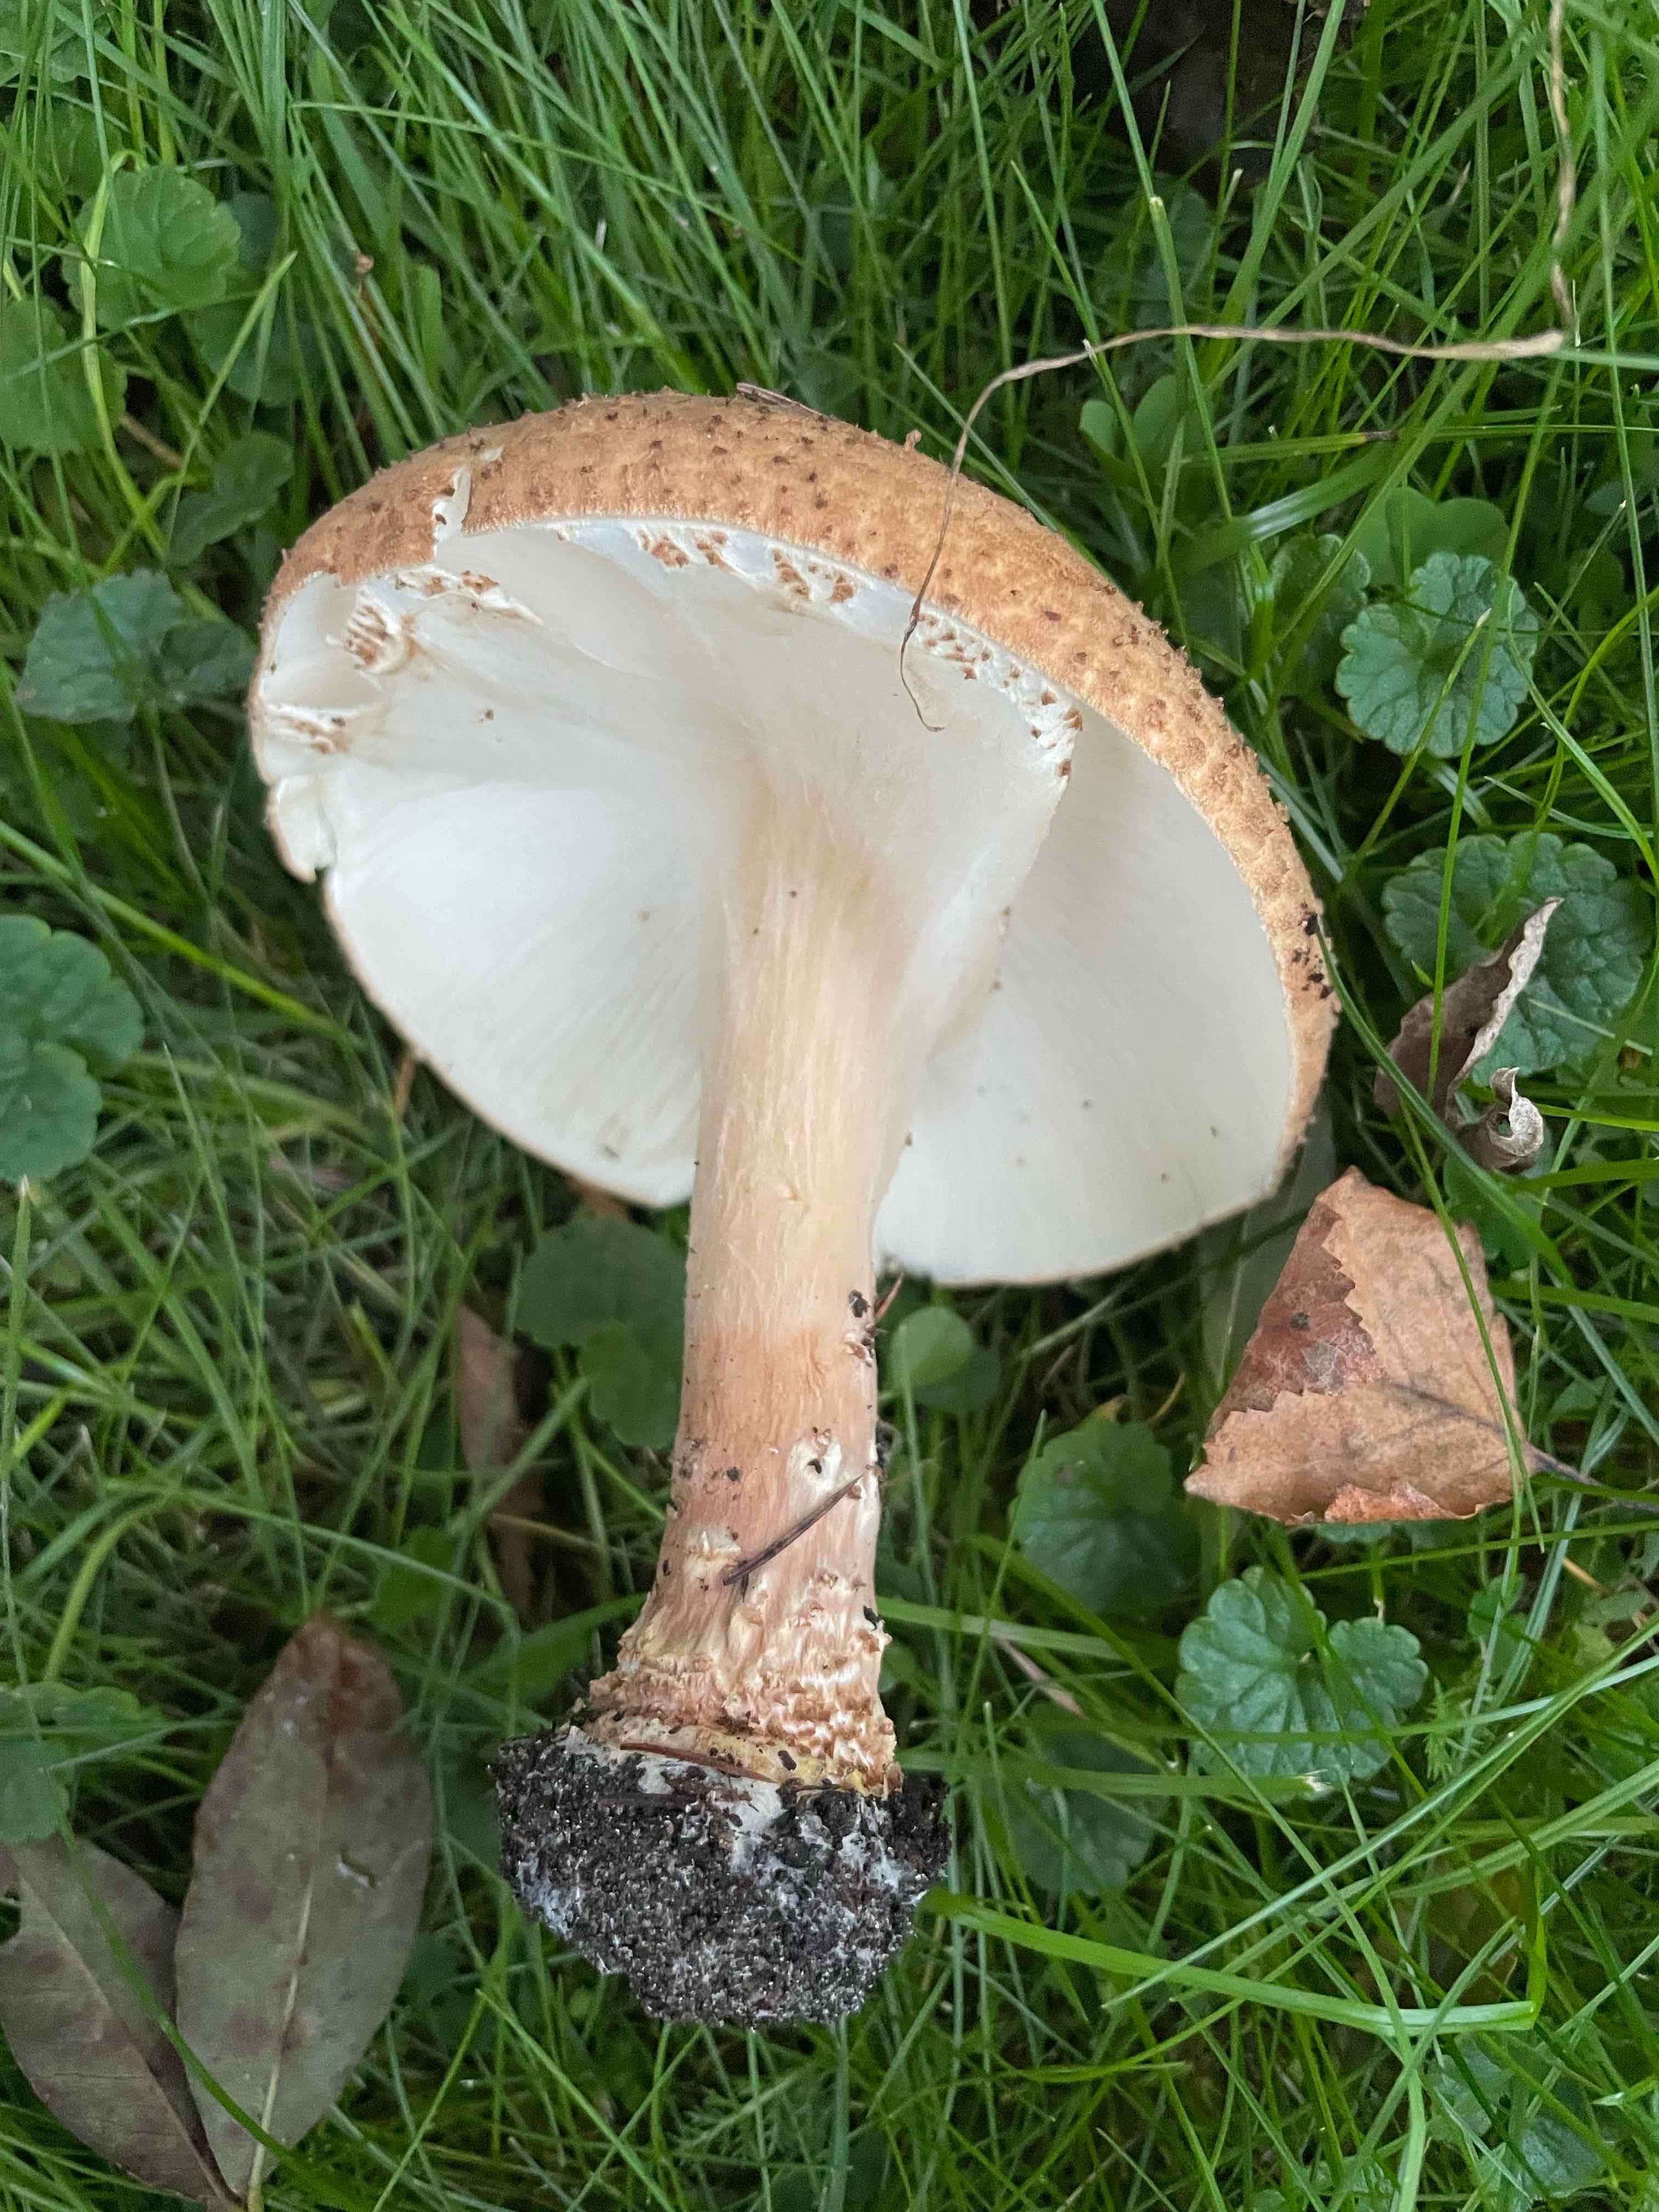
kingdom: Fungi
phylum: Basidiomycota
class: Agaricomycetes
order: Agaricales
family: Agaricaceae
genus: Echinoderma
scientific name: Echinoderma asperum
